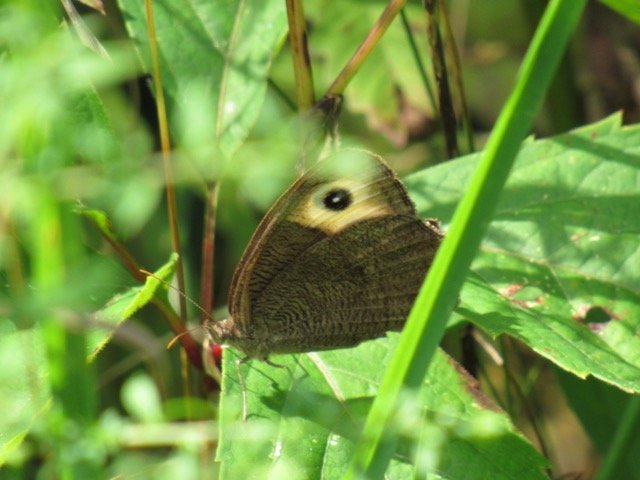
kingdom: Animalia
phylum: Arthropoda
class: Insecta
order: Lepidoptera
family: Nymphalidae
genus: Cercyonis
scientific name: Cercyonis pegala
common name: Common Wood-Nymph
